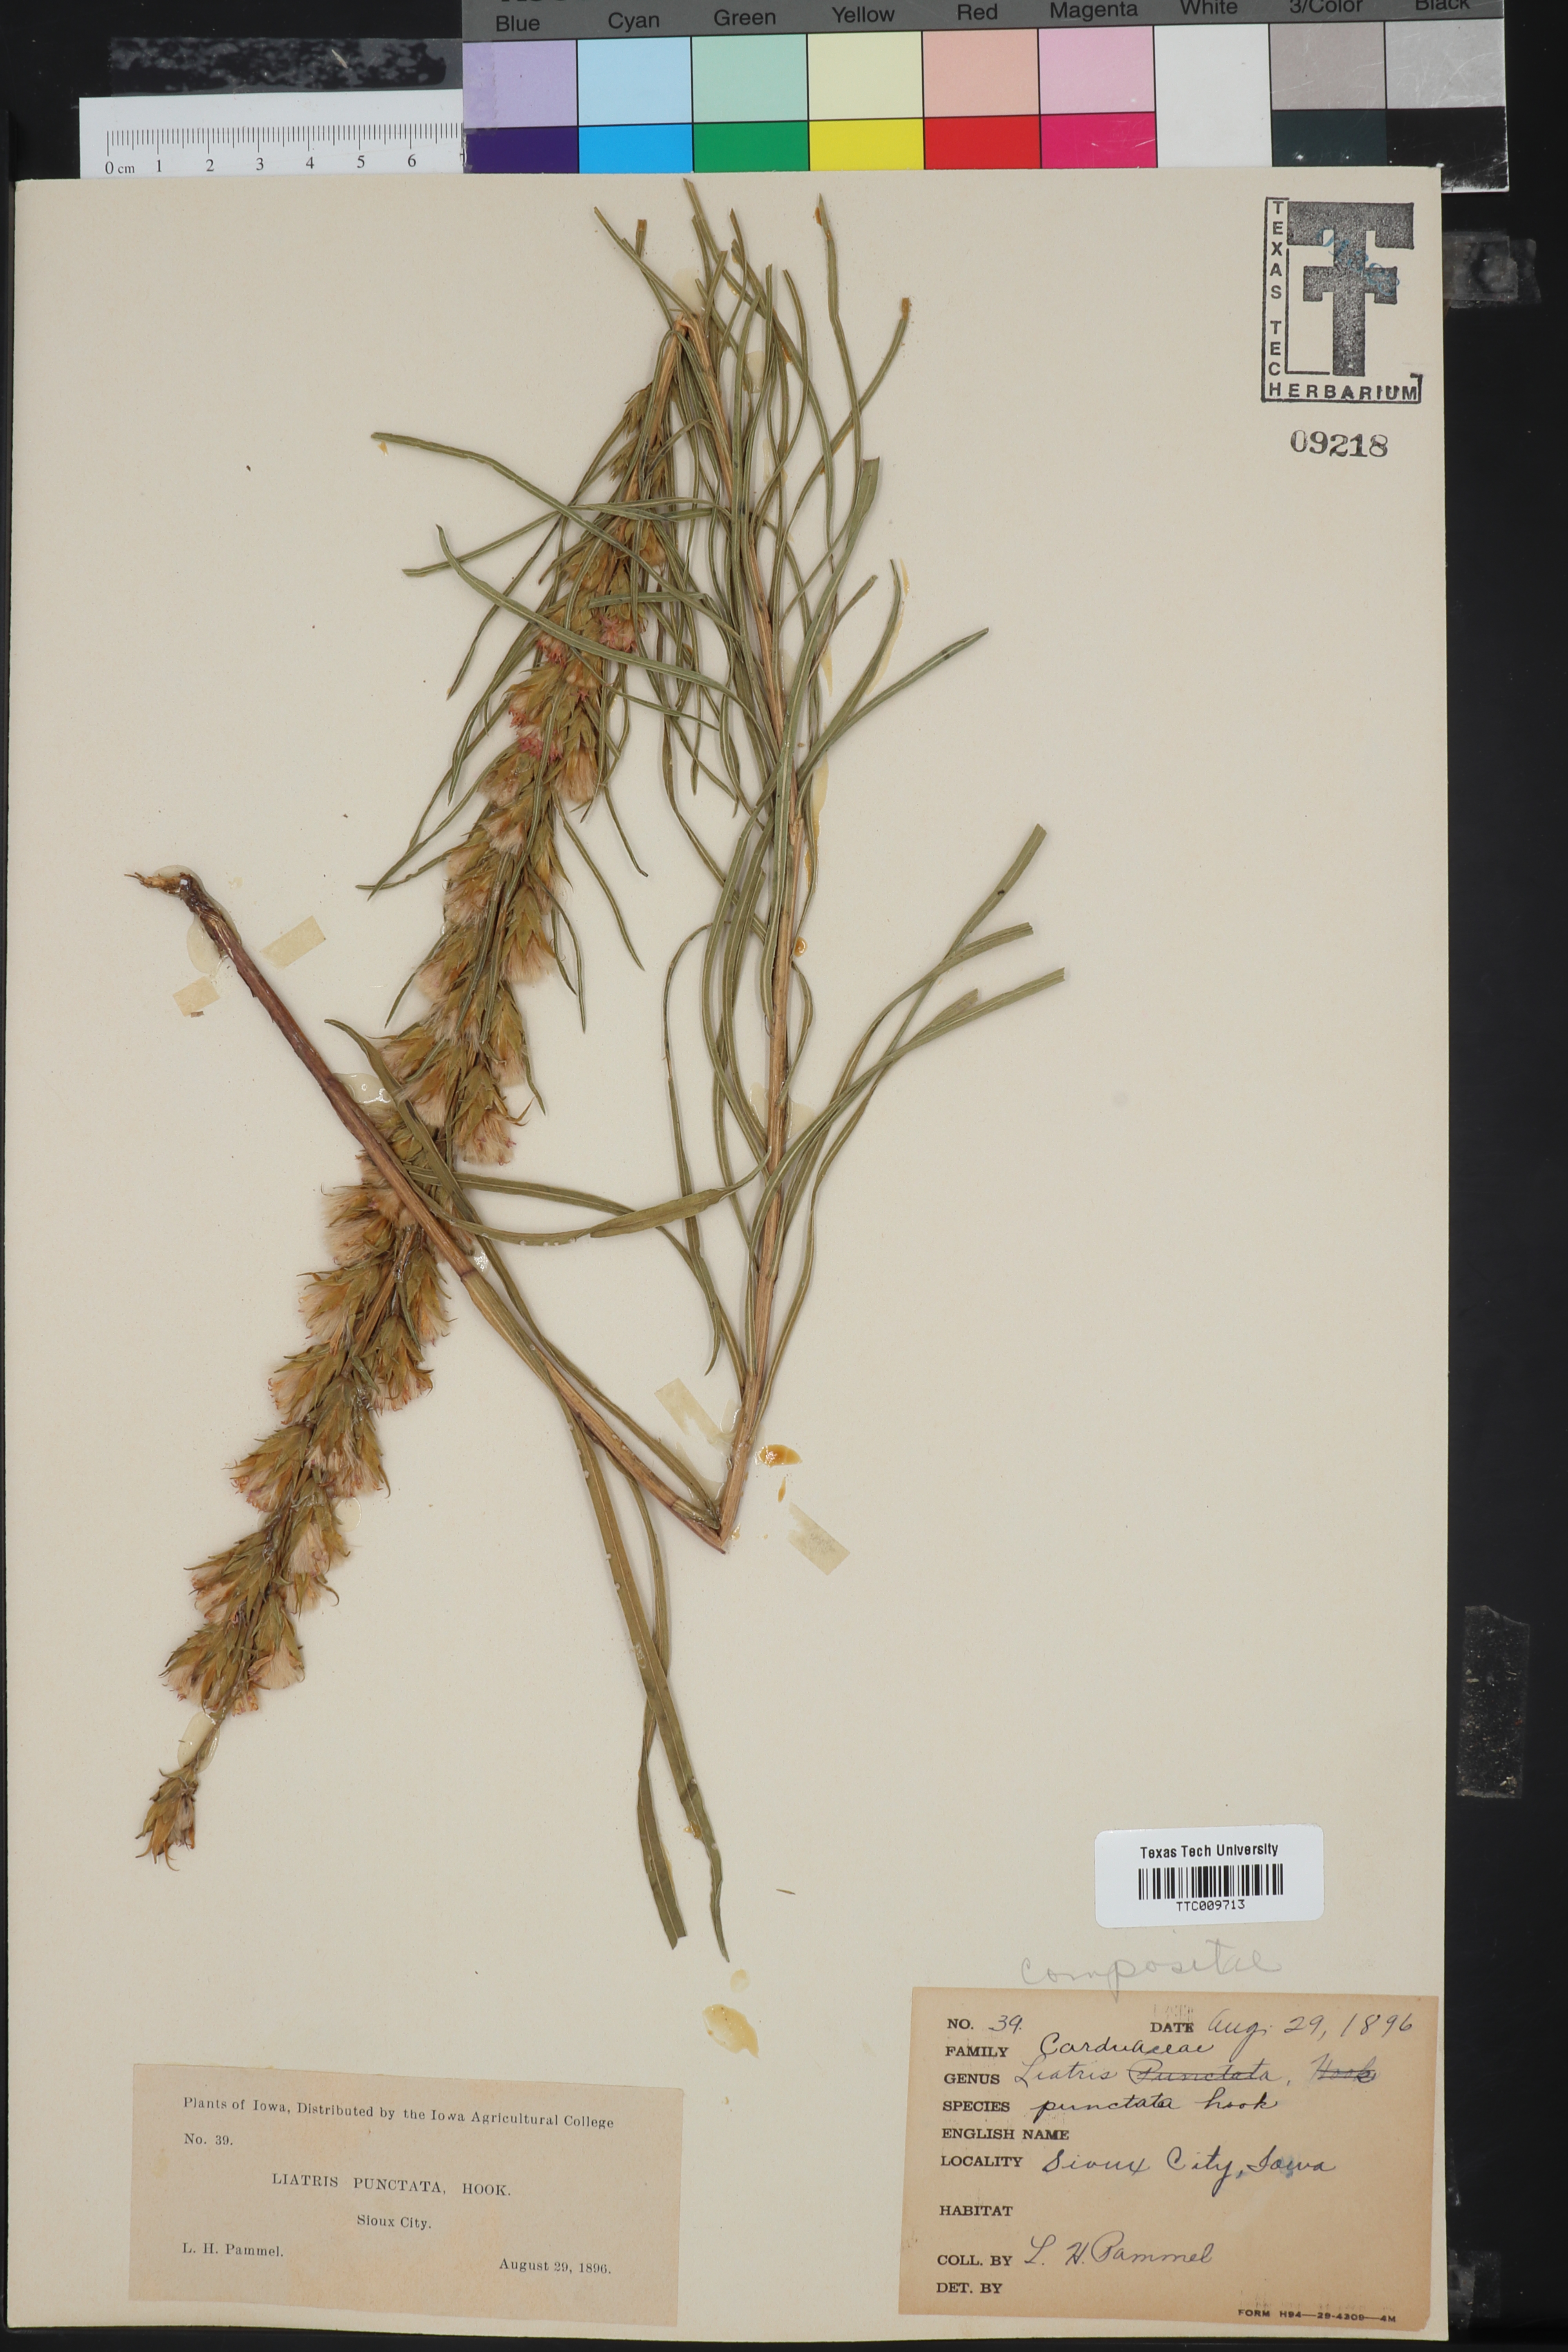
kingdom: Plantae
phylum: Tracheophyta
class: Magnoliopsida
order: Asterales
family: Asteraceae
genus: Liatris
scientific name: Liatris punctata
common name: Dotted gayfeather
